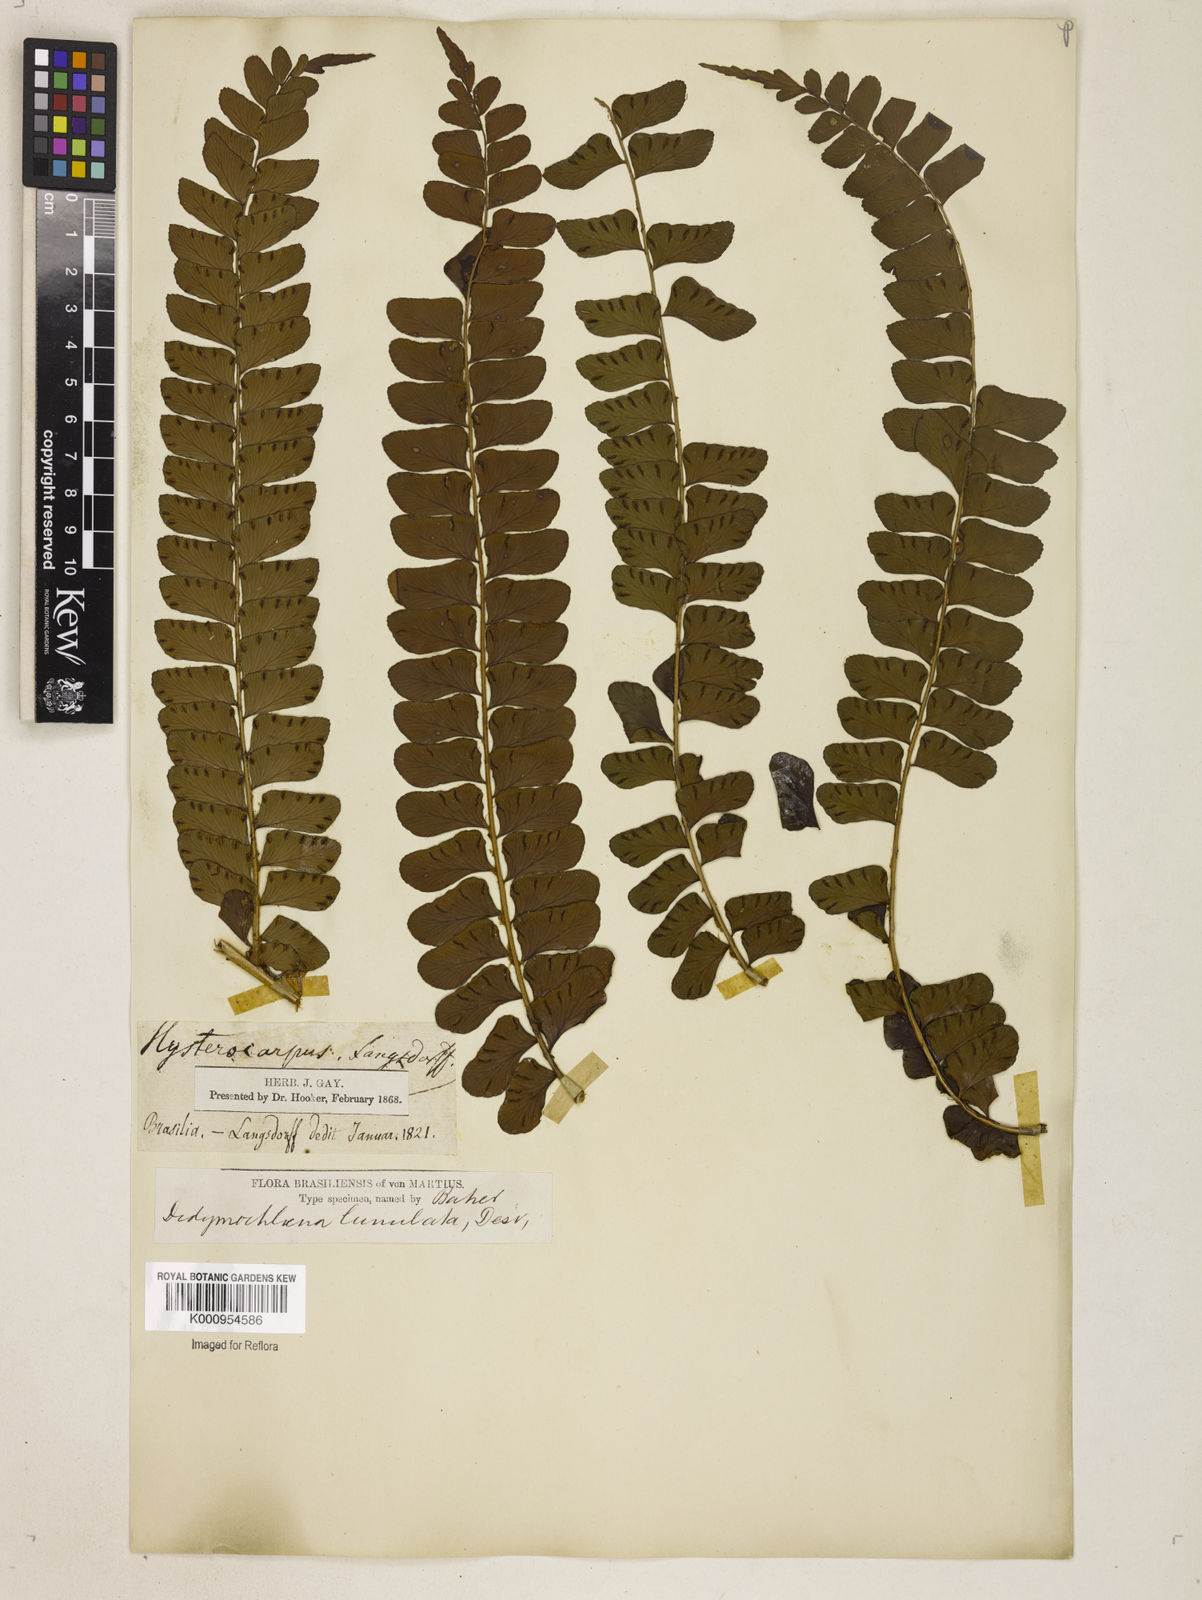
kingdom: Plantae
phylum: Tracheophyta
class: Polypodiopsida
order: Polypodiales
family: Didymochlaenaceae
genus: Didymochlaena
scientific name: Didymochlaena truncatula
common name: Mahogany fern
